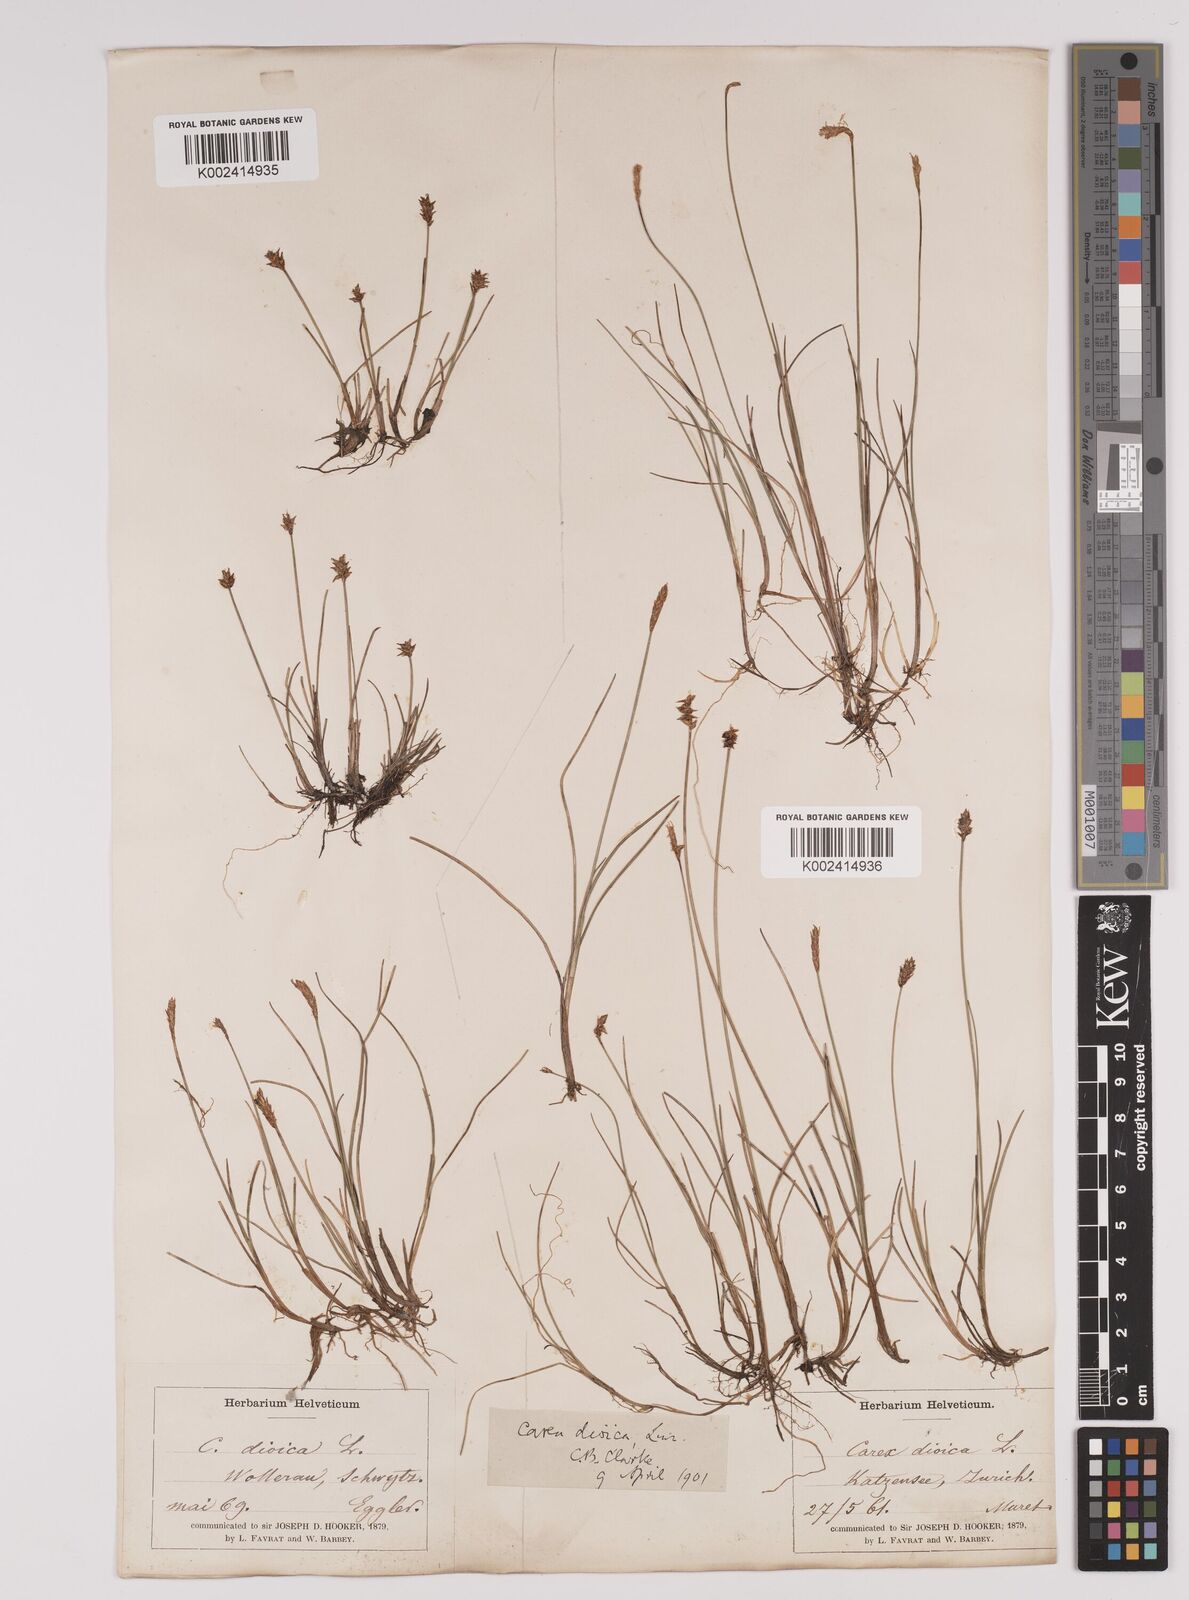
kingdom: Plantae
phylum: Tracheophyta
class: Liliopsida
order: Poales
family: Cyperaceae
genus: Carex
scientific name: Carex dioica
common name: Dioecious sedge
